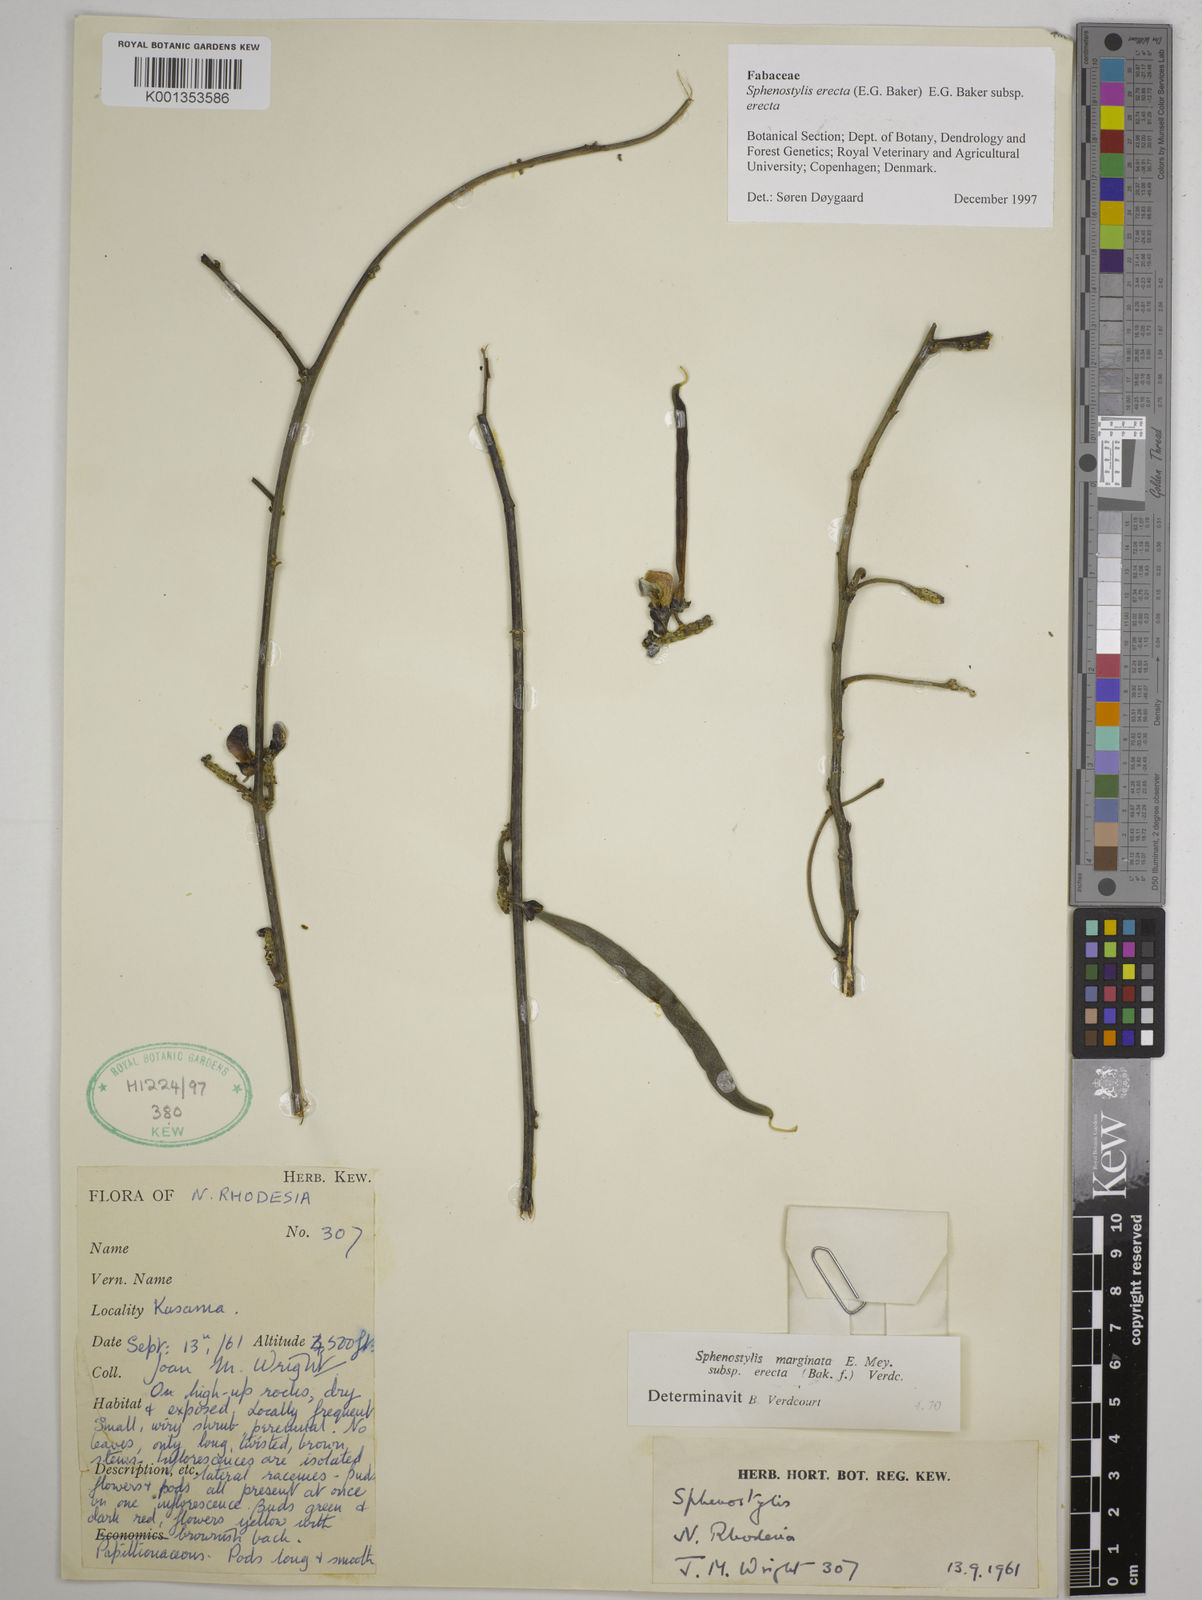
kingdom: Plantae
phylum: Tracheophyta
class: Magnoliopsida
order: Fabales
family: Fabaceae
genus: Sphenostylis
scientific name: Sphenostylis erecta
